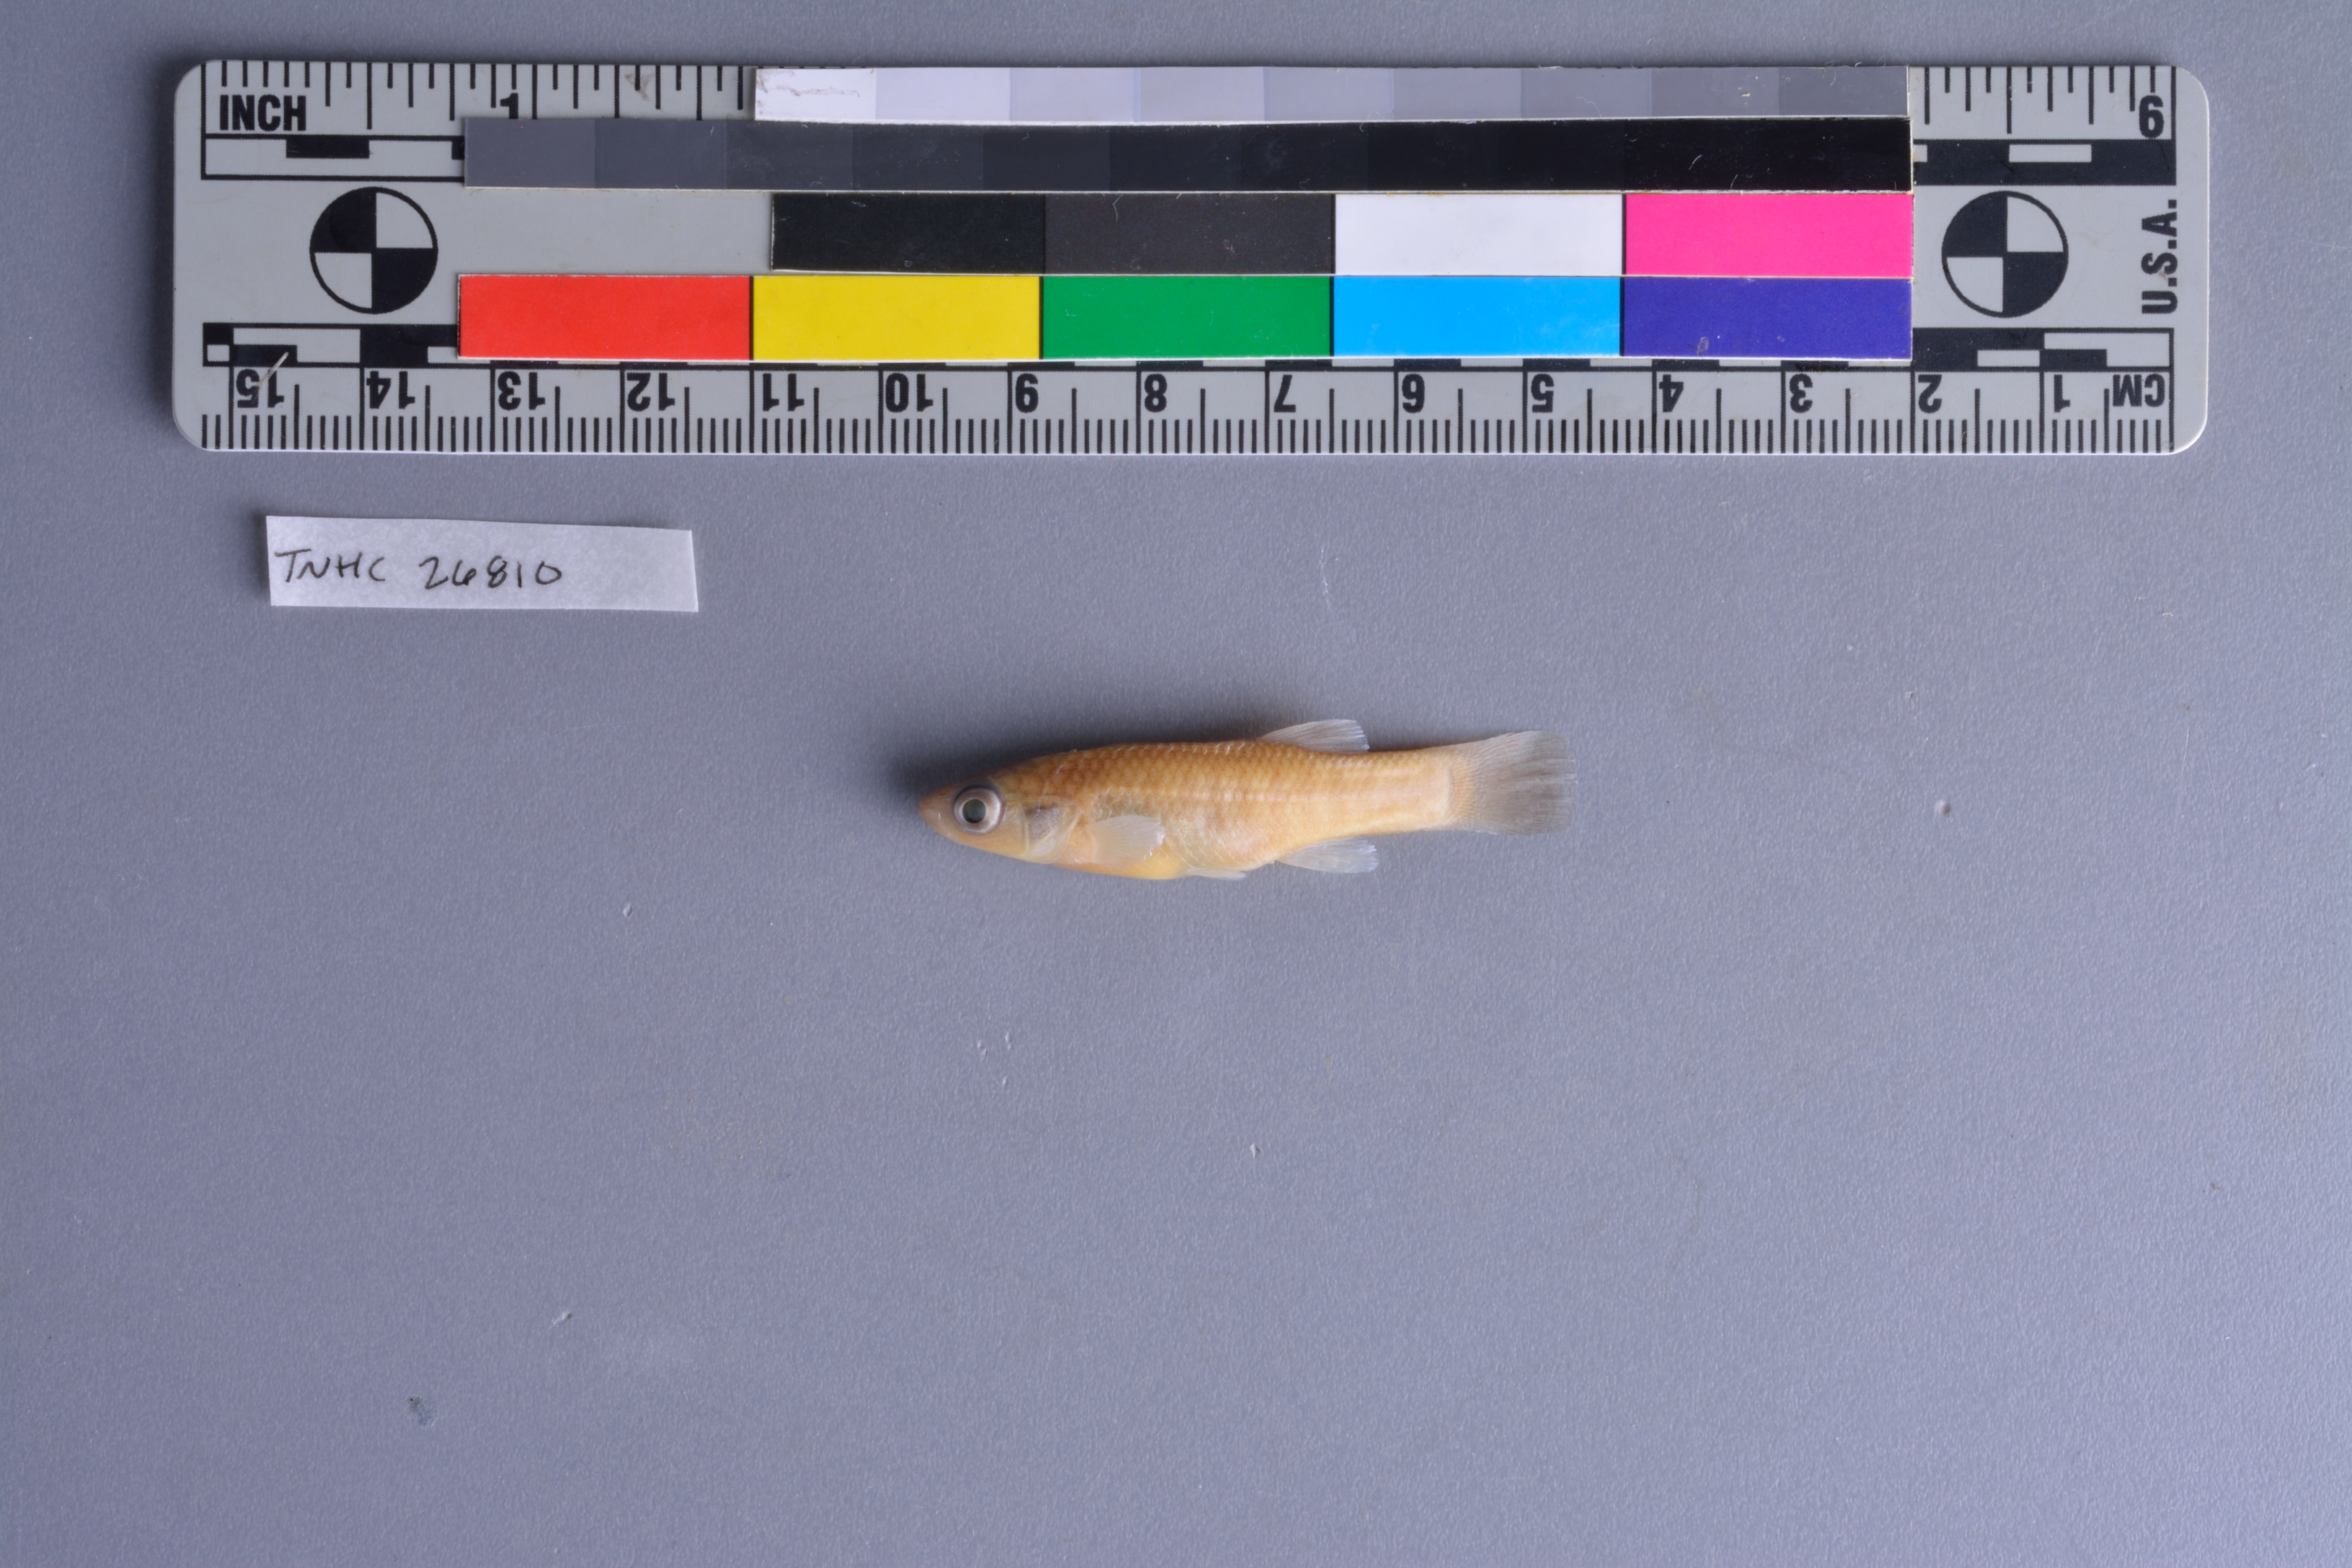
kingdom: Animalia
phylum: Chordata
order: Cyprinodontiformes
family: Fundulidae
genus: Fundulus
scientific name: Fundulus grandis
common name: Gulf killifish
